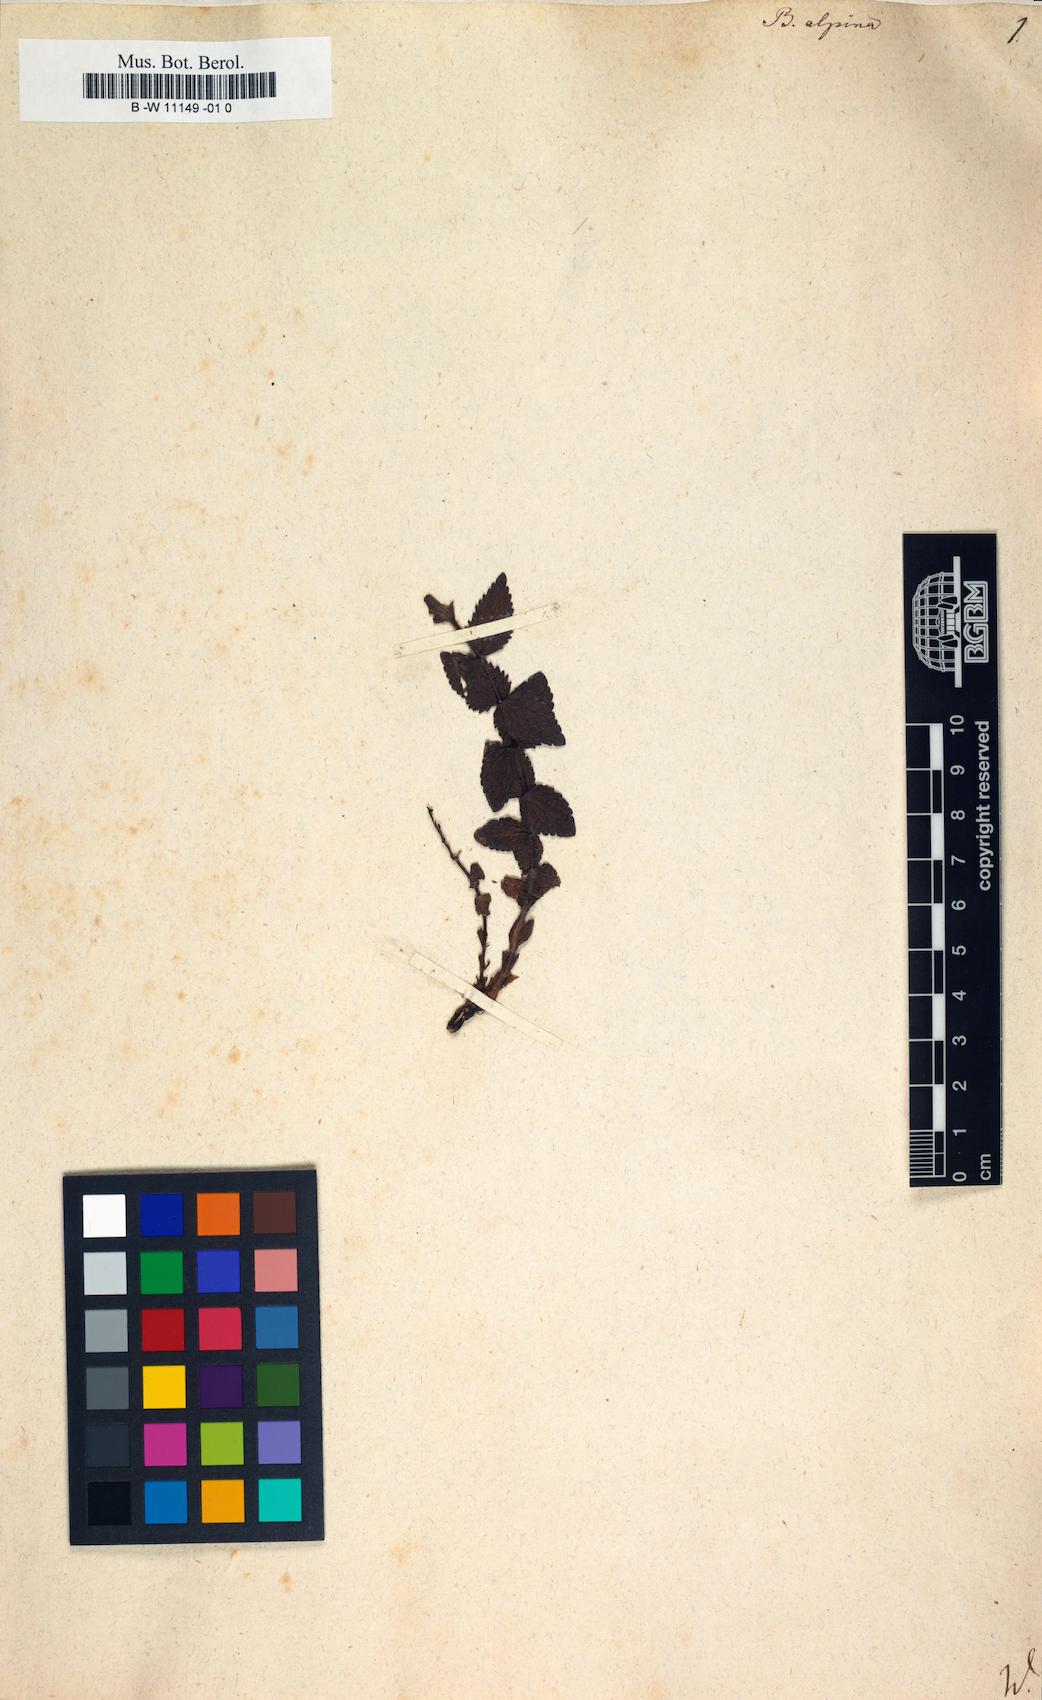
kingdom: Plantae
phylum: Tracheophyta
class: Magnoliopsida
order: Lamiales
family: Orobanchaceae
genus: Bartsia
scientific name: Bartsia alpina
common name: Alpine bartsia
